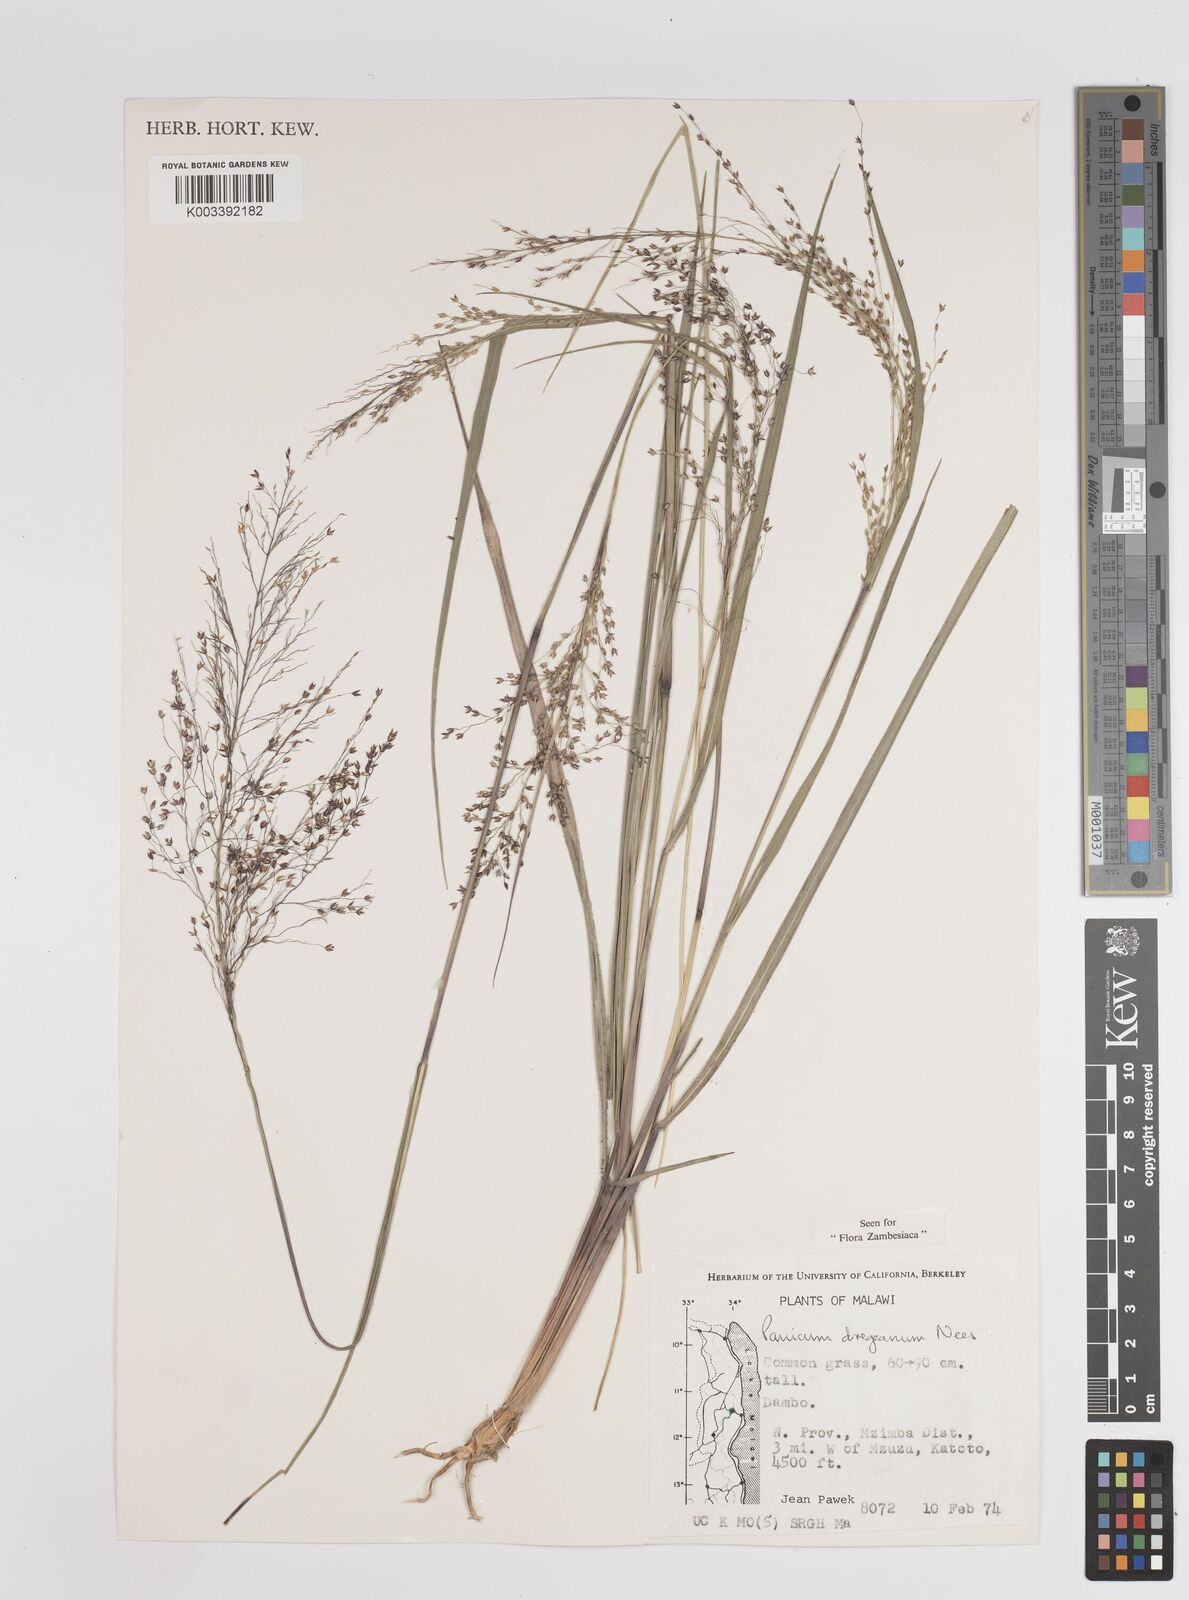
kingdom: Plantae
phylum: Tracheophyta
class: Liliopsida
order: Poales
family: Poaceae
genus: Panicum
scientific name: Panicum dregeanum
